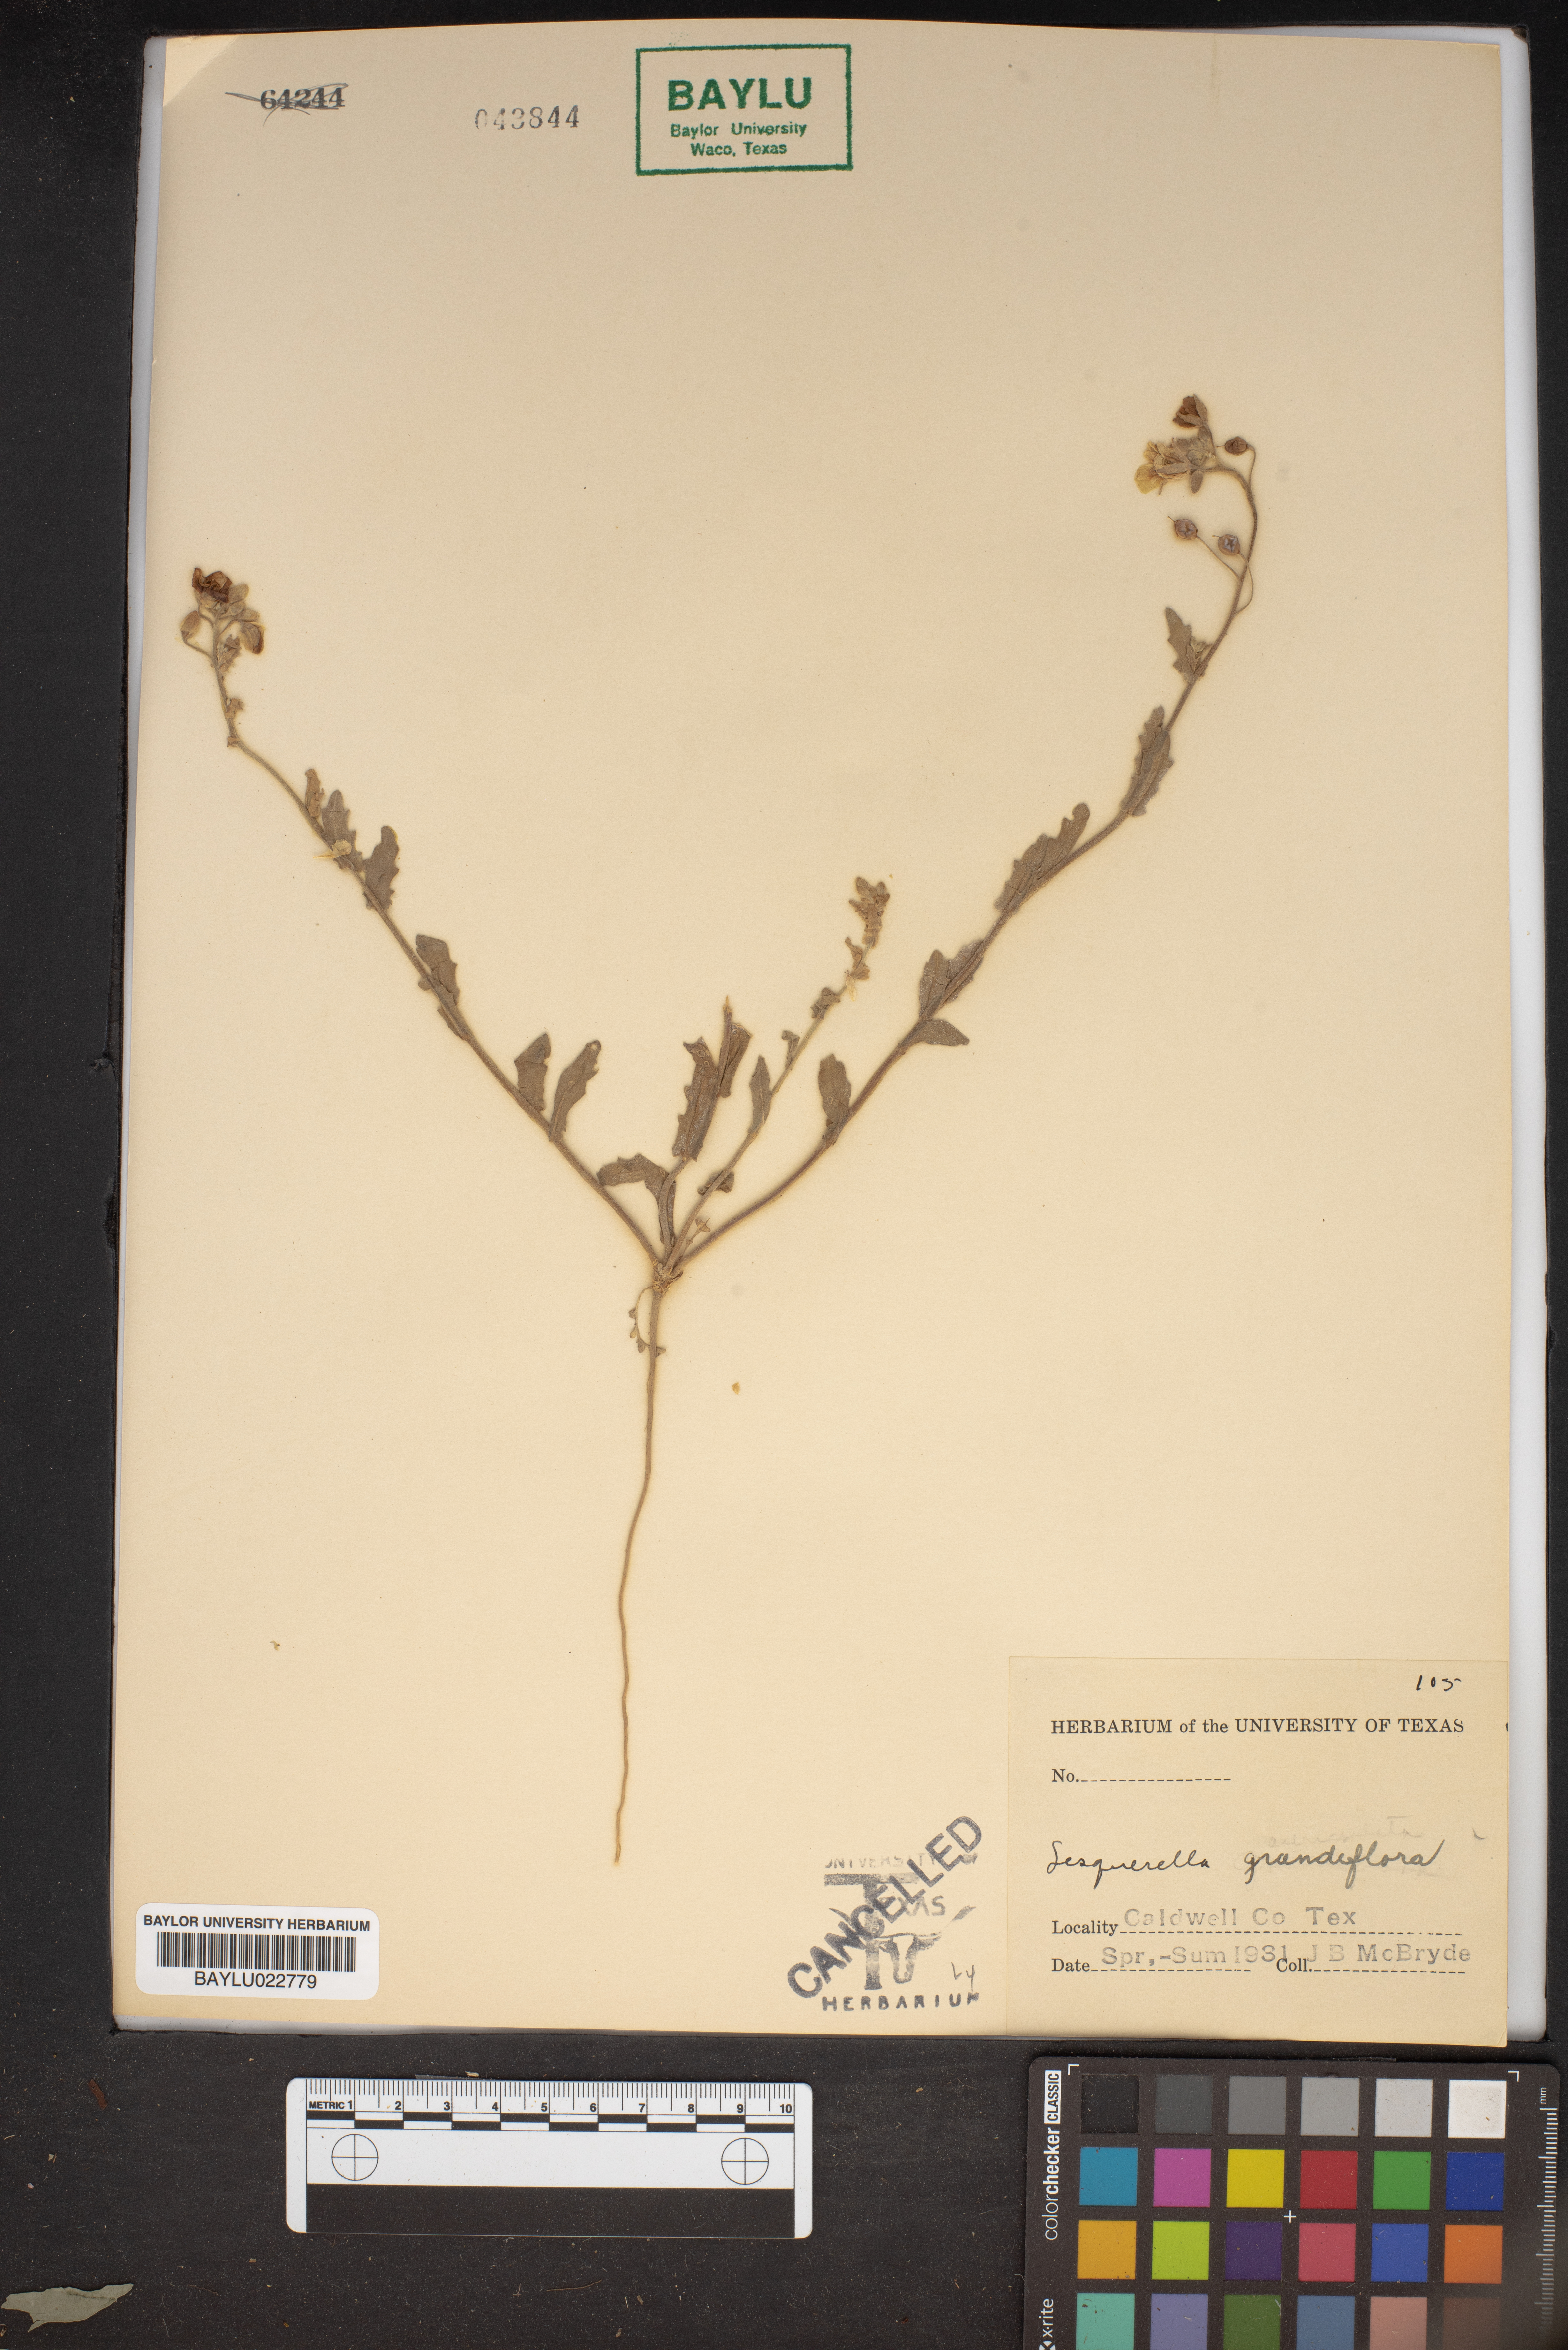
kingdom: Plantae
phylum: Tracheophyta
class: Magnoliopsida
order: Brassicales
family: Brassicaceae
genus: Paysonia
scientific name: Paysonia grandiflora
